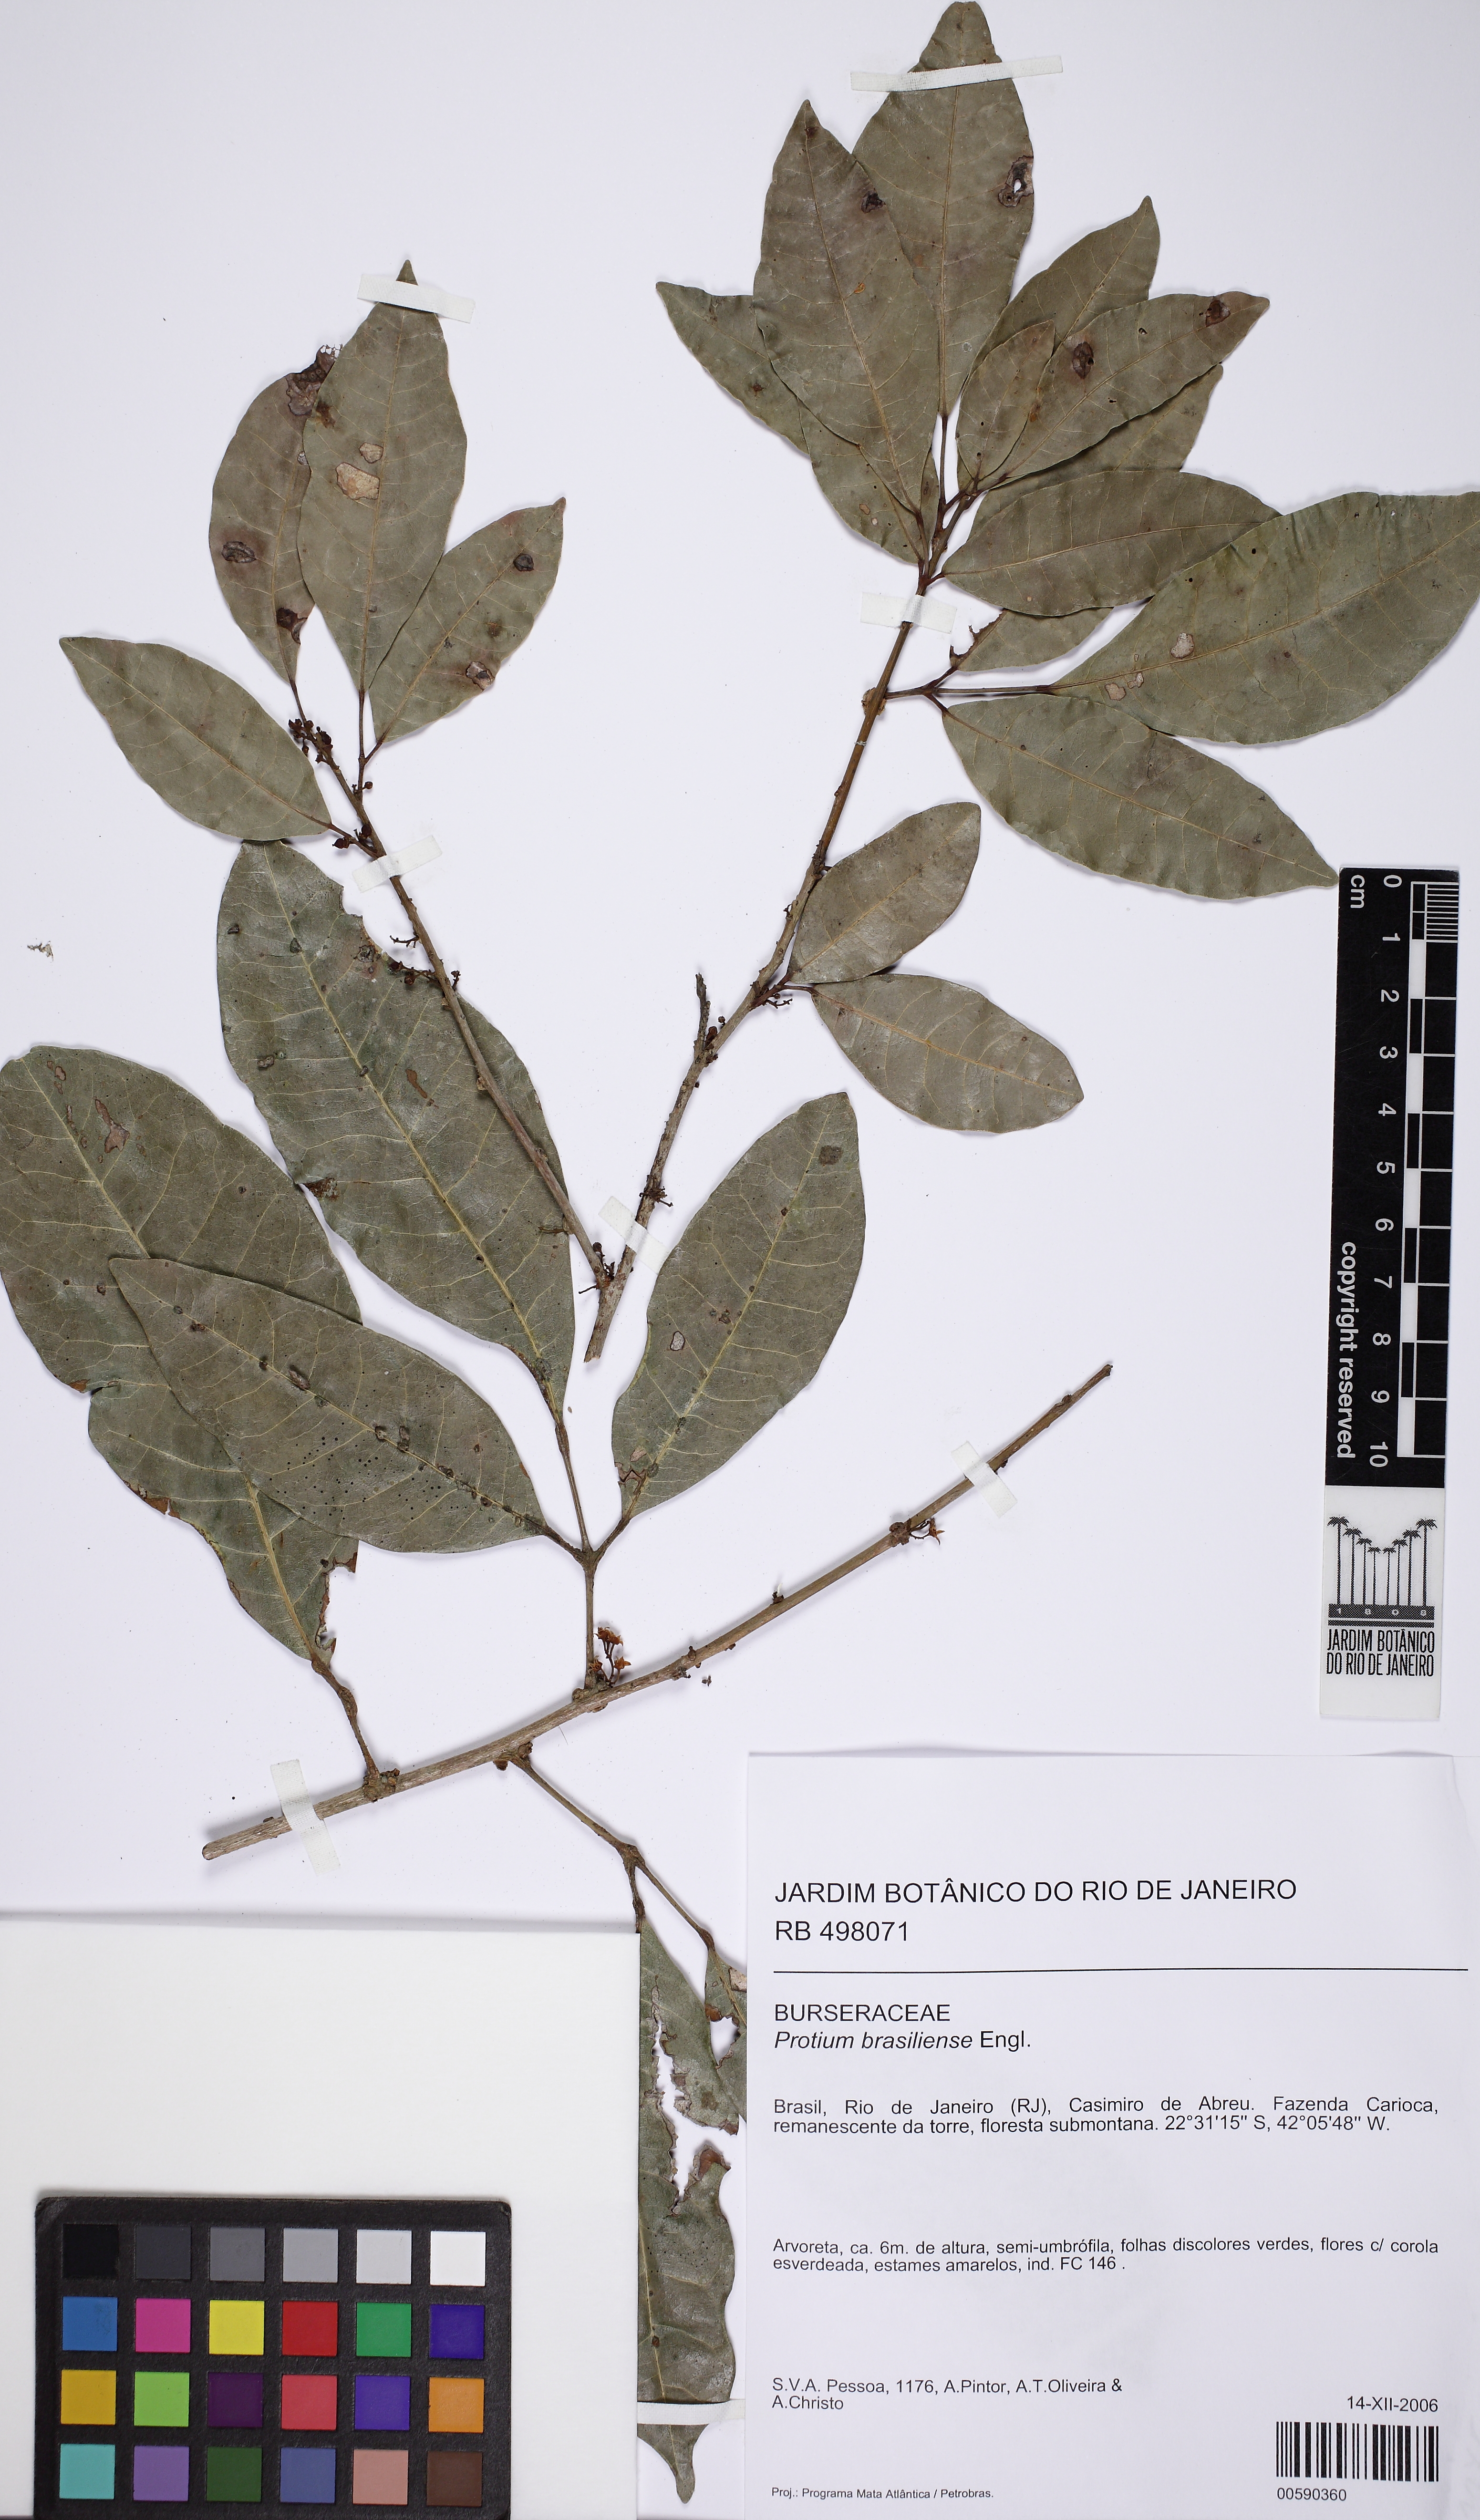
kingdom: Plantae
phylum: Tracheophyta
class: Magnoliopsida
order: Sapindales
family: Burseraceae
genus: Protium
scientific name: Protium brasiliense
